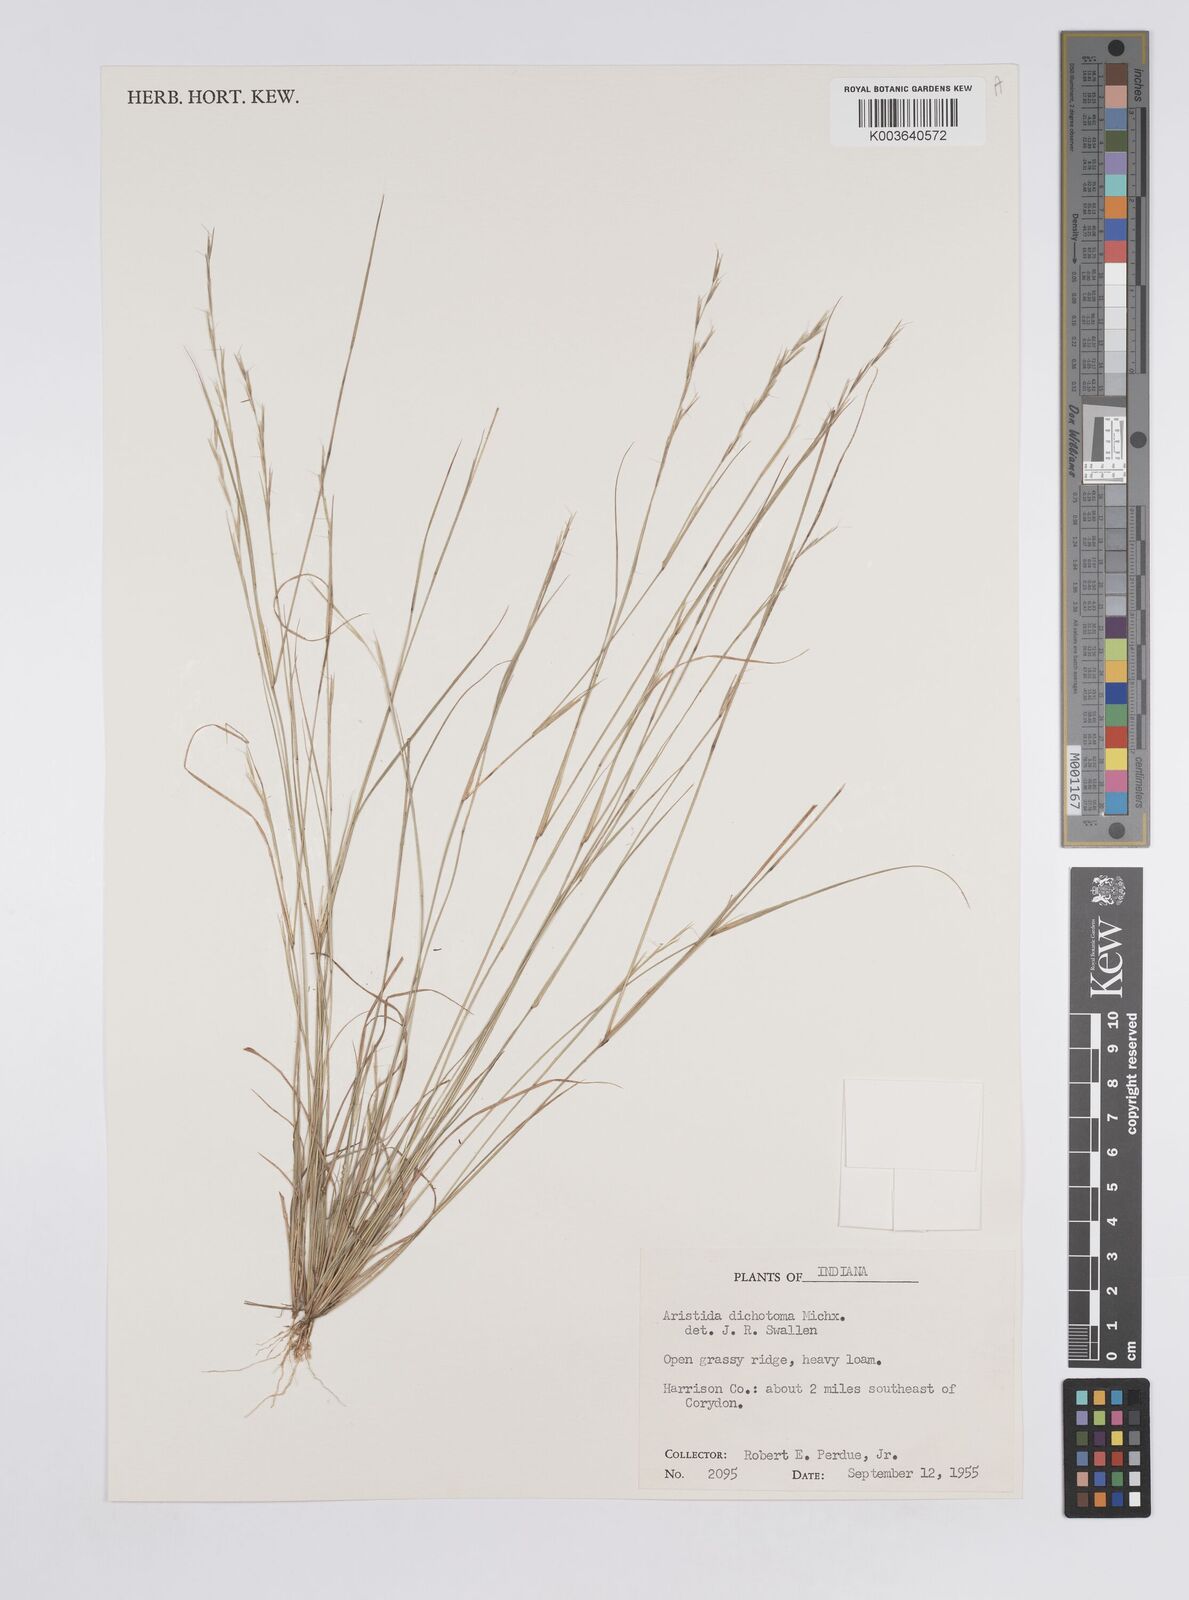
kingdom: Plantae
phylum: Tracheophyta
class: Liliopsida
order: Poales
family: Poaceae
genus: Aristida
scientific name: Aristida dichotoma
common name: Churchmouse three-awn
